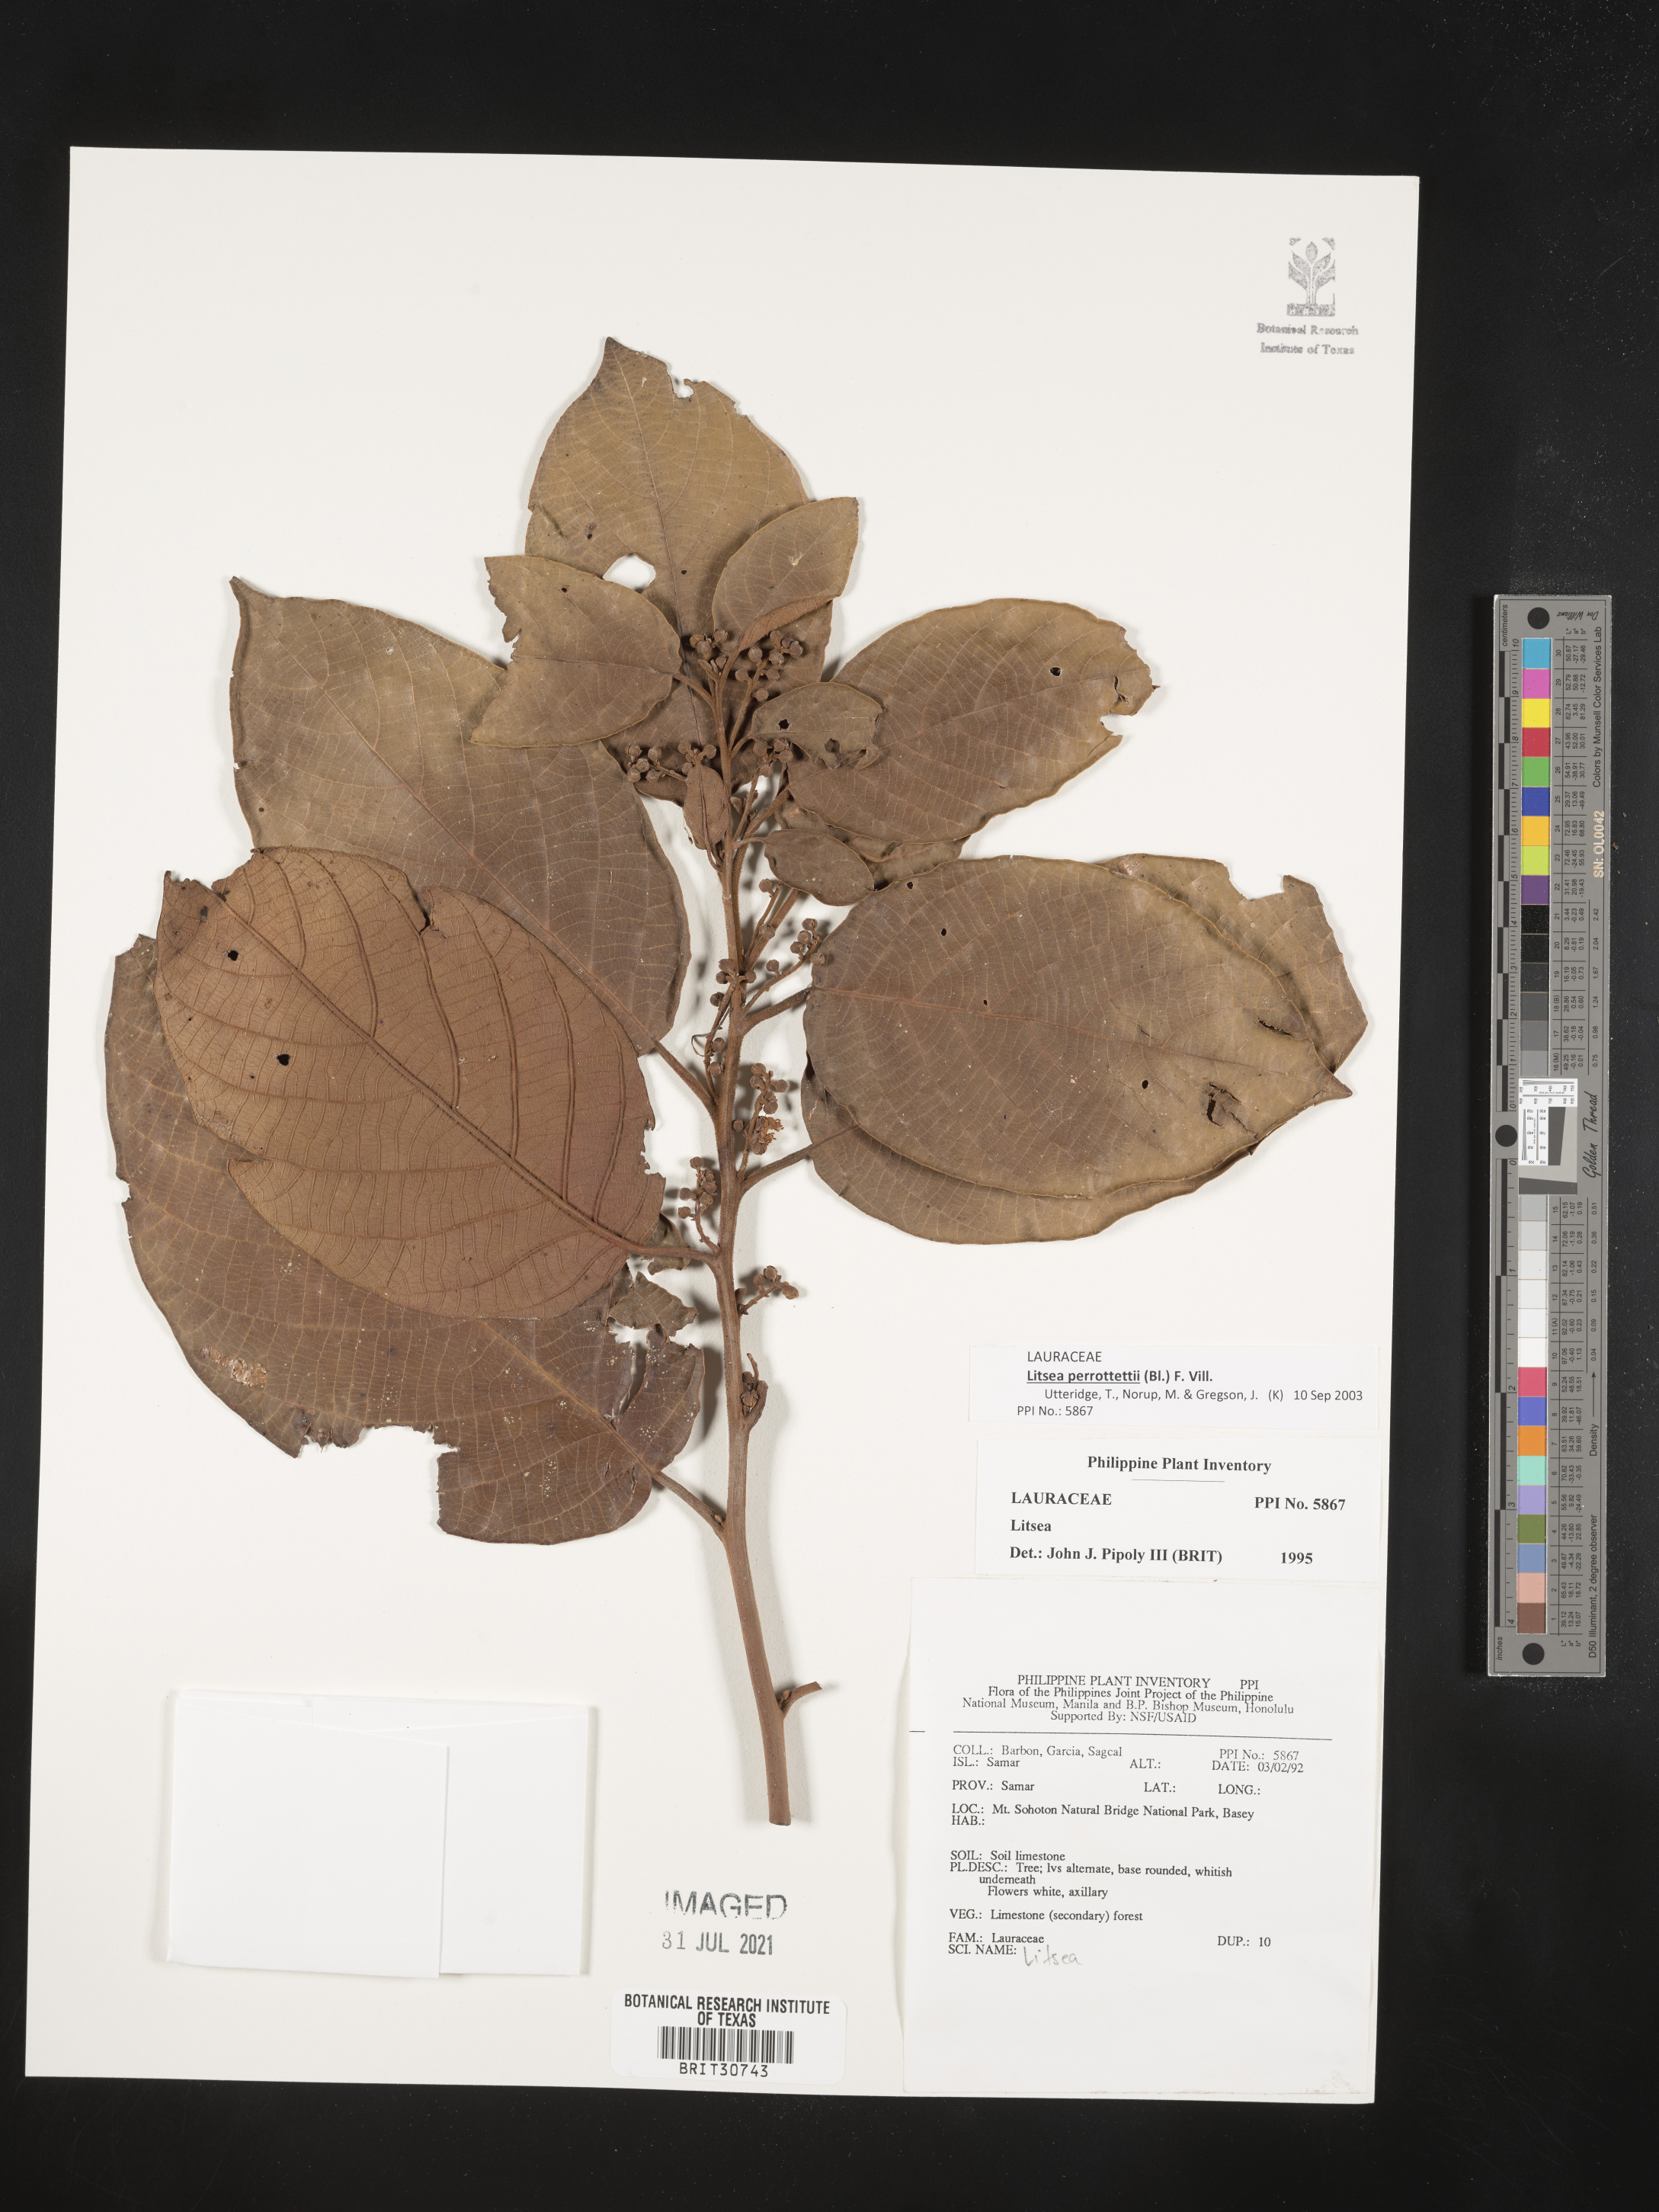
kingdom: Plantae
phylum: Tracheophyta
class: Magnoliopsida
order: Laurales
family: Lauraceae
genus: Litsea
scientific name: Litsea
